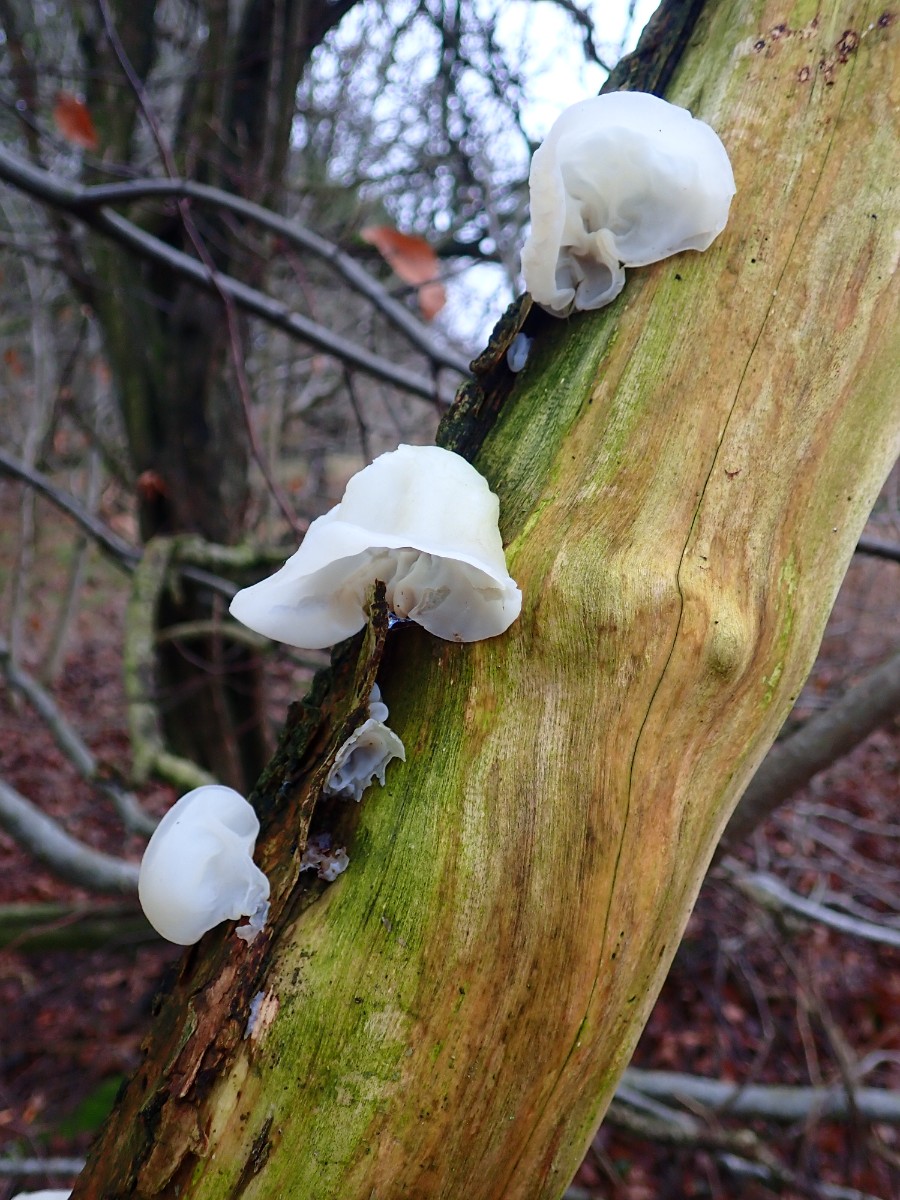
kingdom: Fungi
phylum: Basidiomycota
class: Agaricomycetes
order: Auriculariales
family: Auriculariaceae
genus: Auricularia
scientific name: Auricularia auricula-judae
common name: almindelig judasøre
